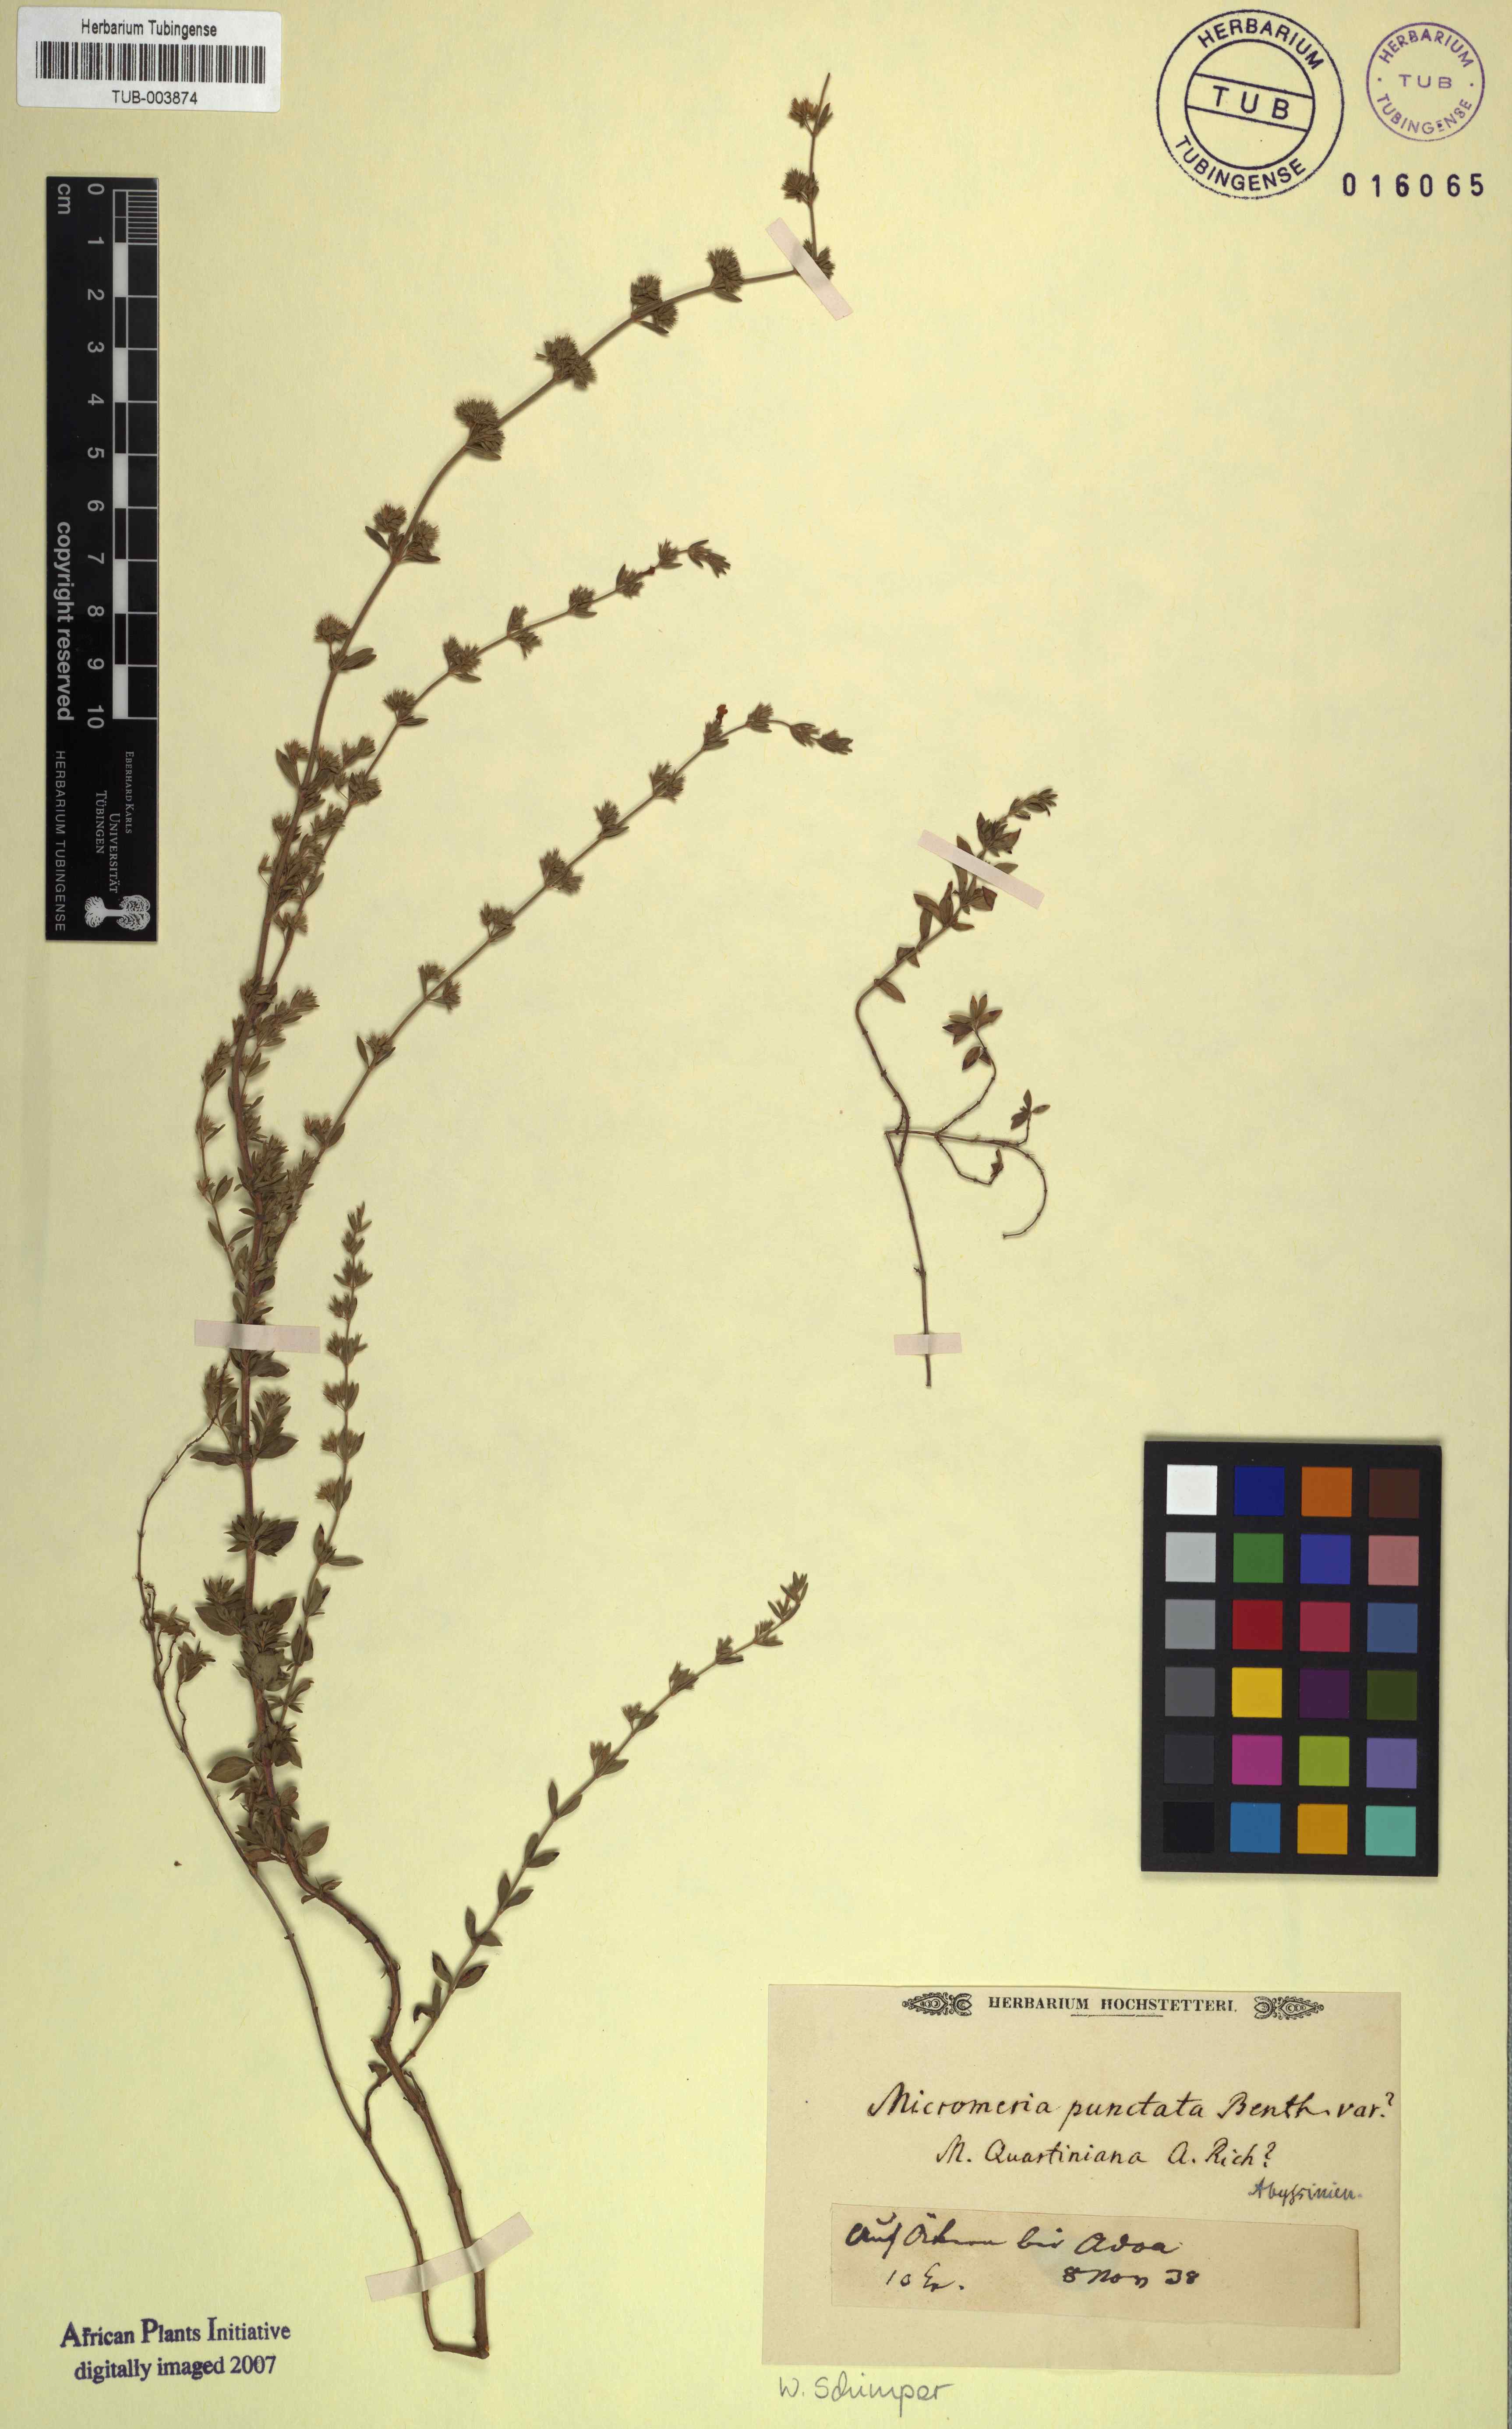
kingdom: Plantae
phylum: Tracheophyta
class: Magnoliopsida
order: Lamiales
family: Lamiaceae
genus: Micromeria
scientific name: Micromeria imbricata
